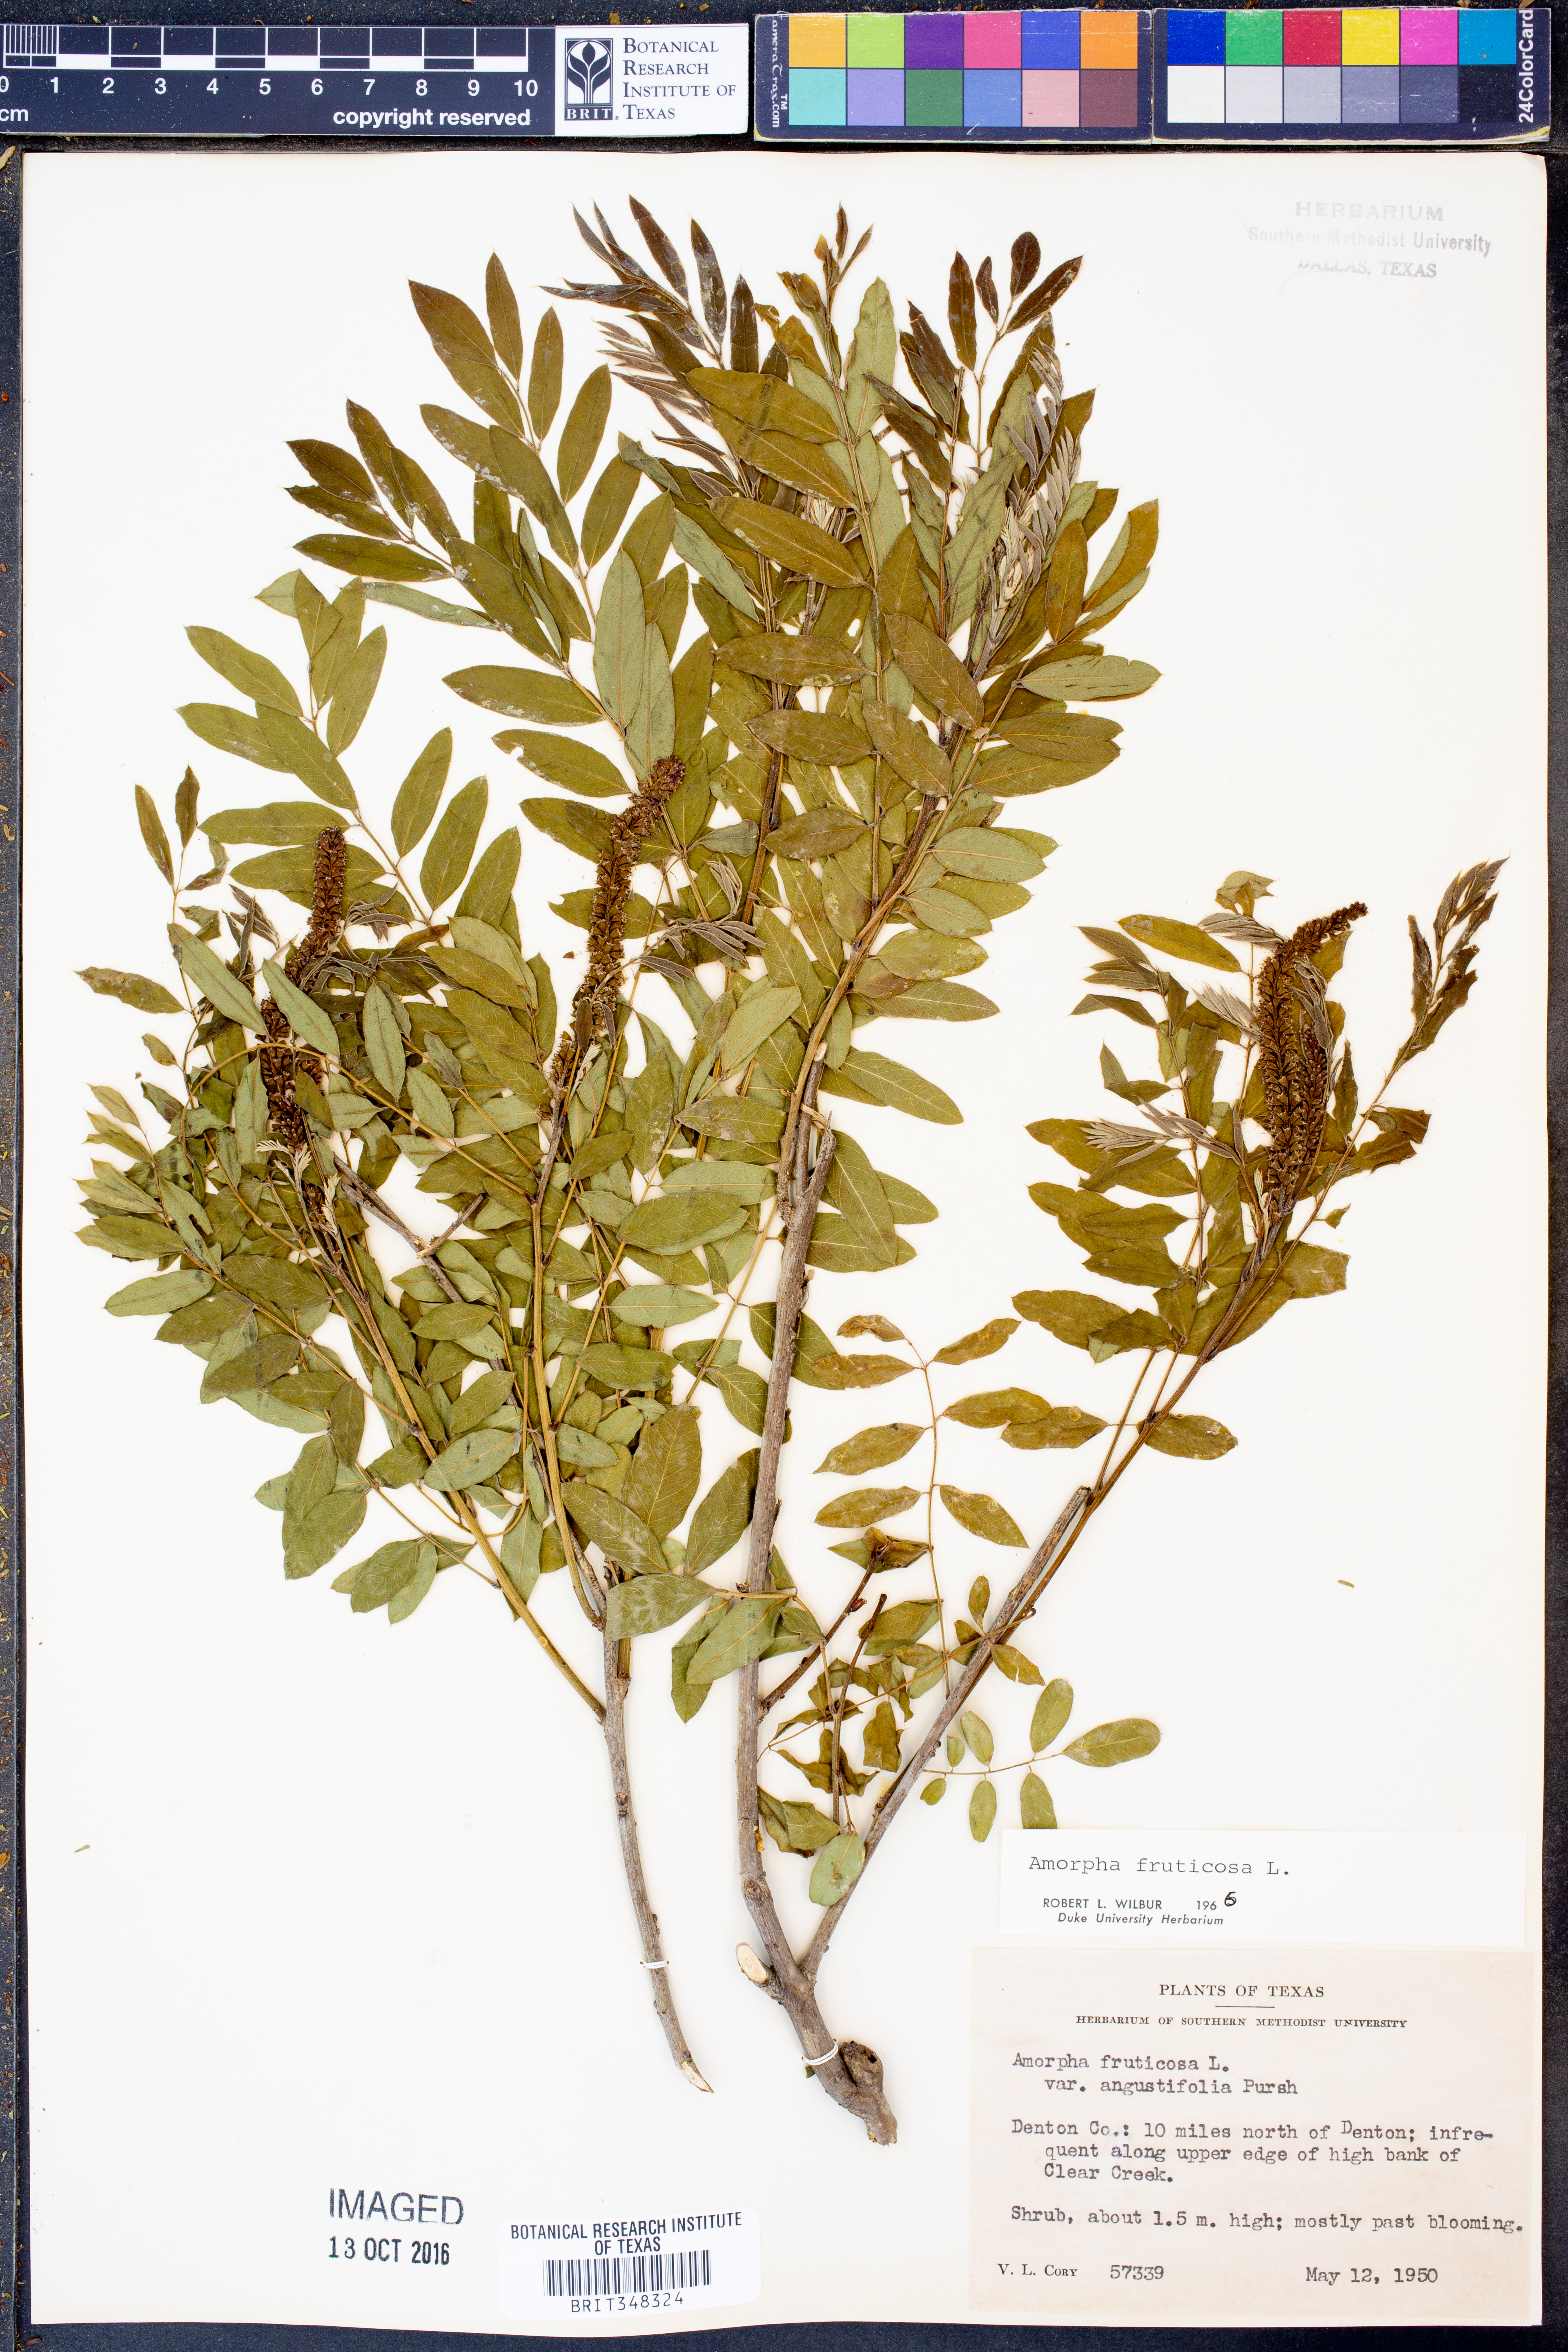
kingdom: Plantae
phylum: Tracheophyta
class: Magnoliopsida
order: Fabales
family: Fabaceae
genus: Amorpha
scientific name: Amorpha fruticosa
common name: False indigo
